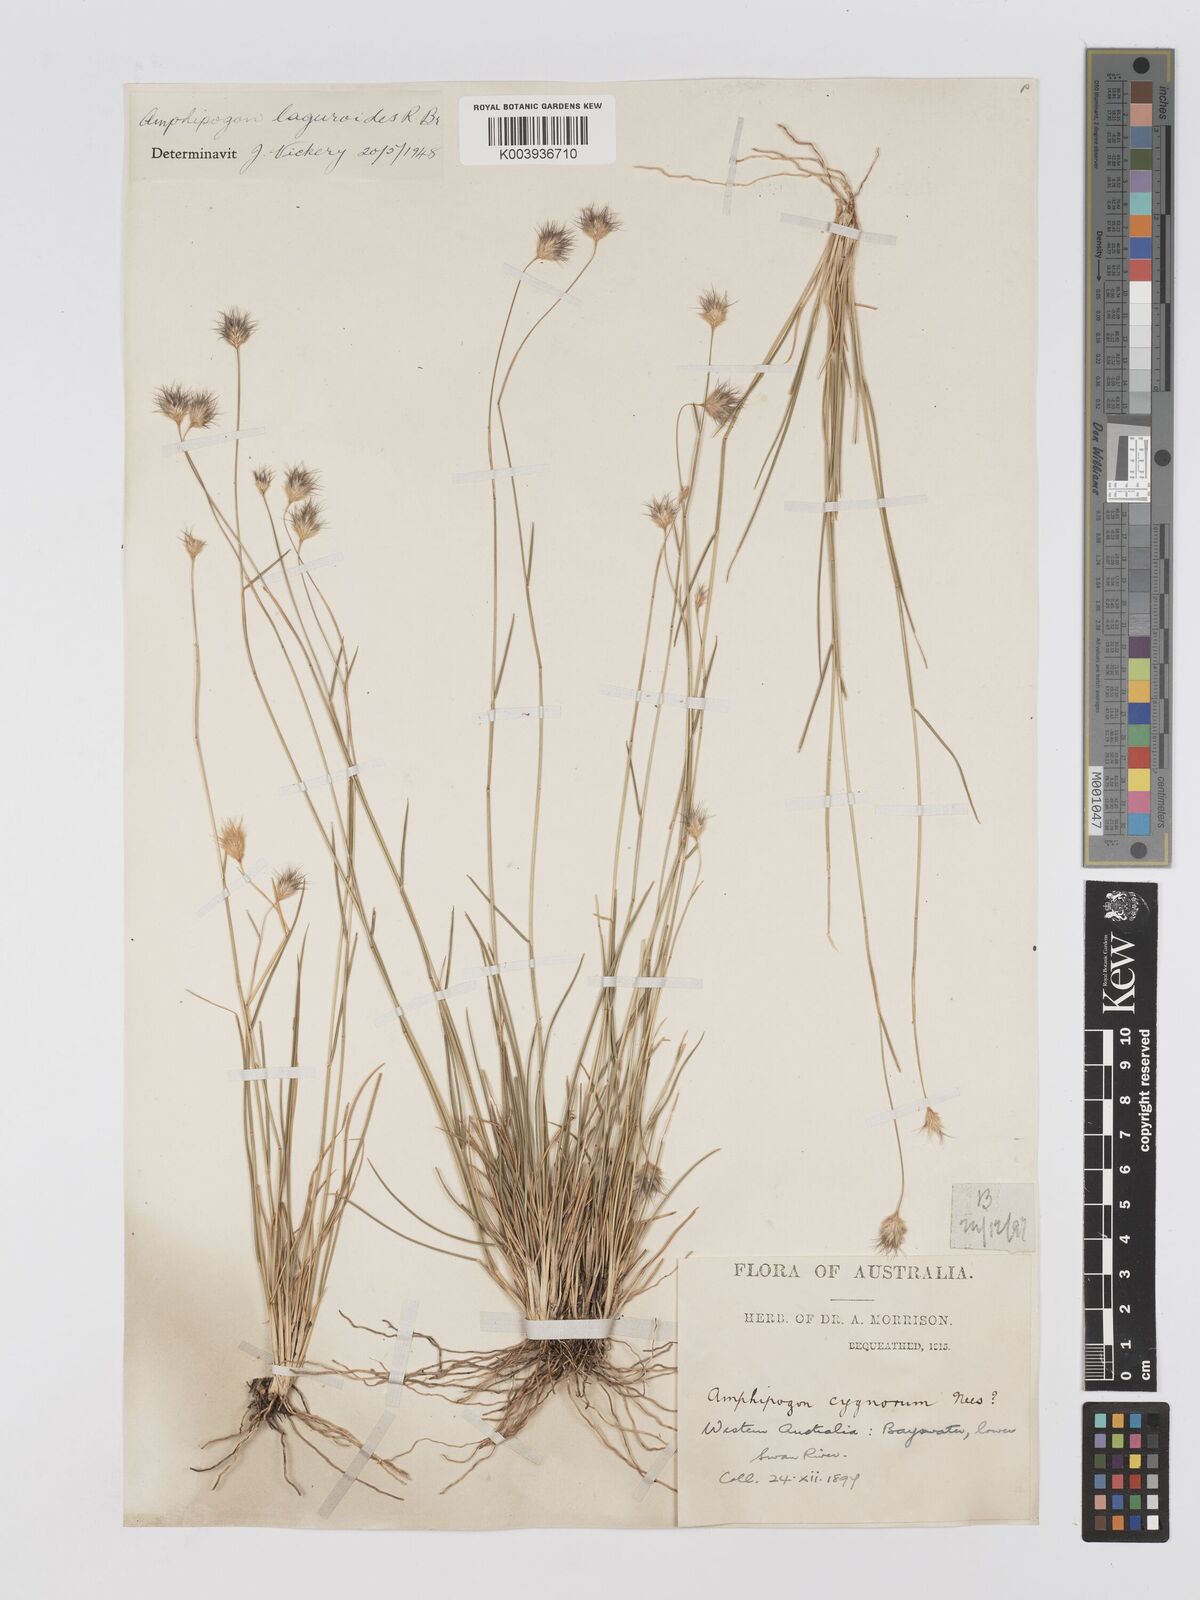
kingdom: Plantae
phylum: Tracheophyta
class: Liliopsida
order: Poales
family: Poaceae
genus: Amphipogon
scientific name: Amphipogon laguroides
